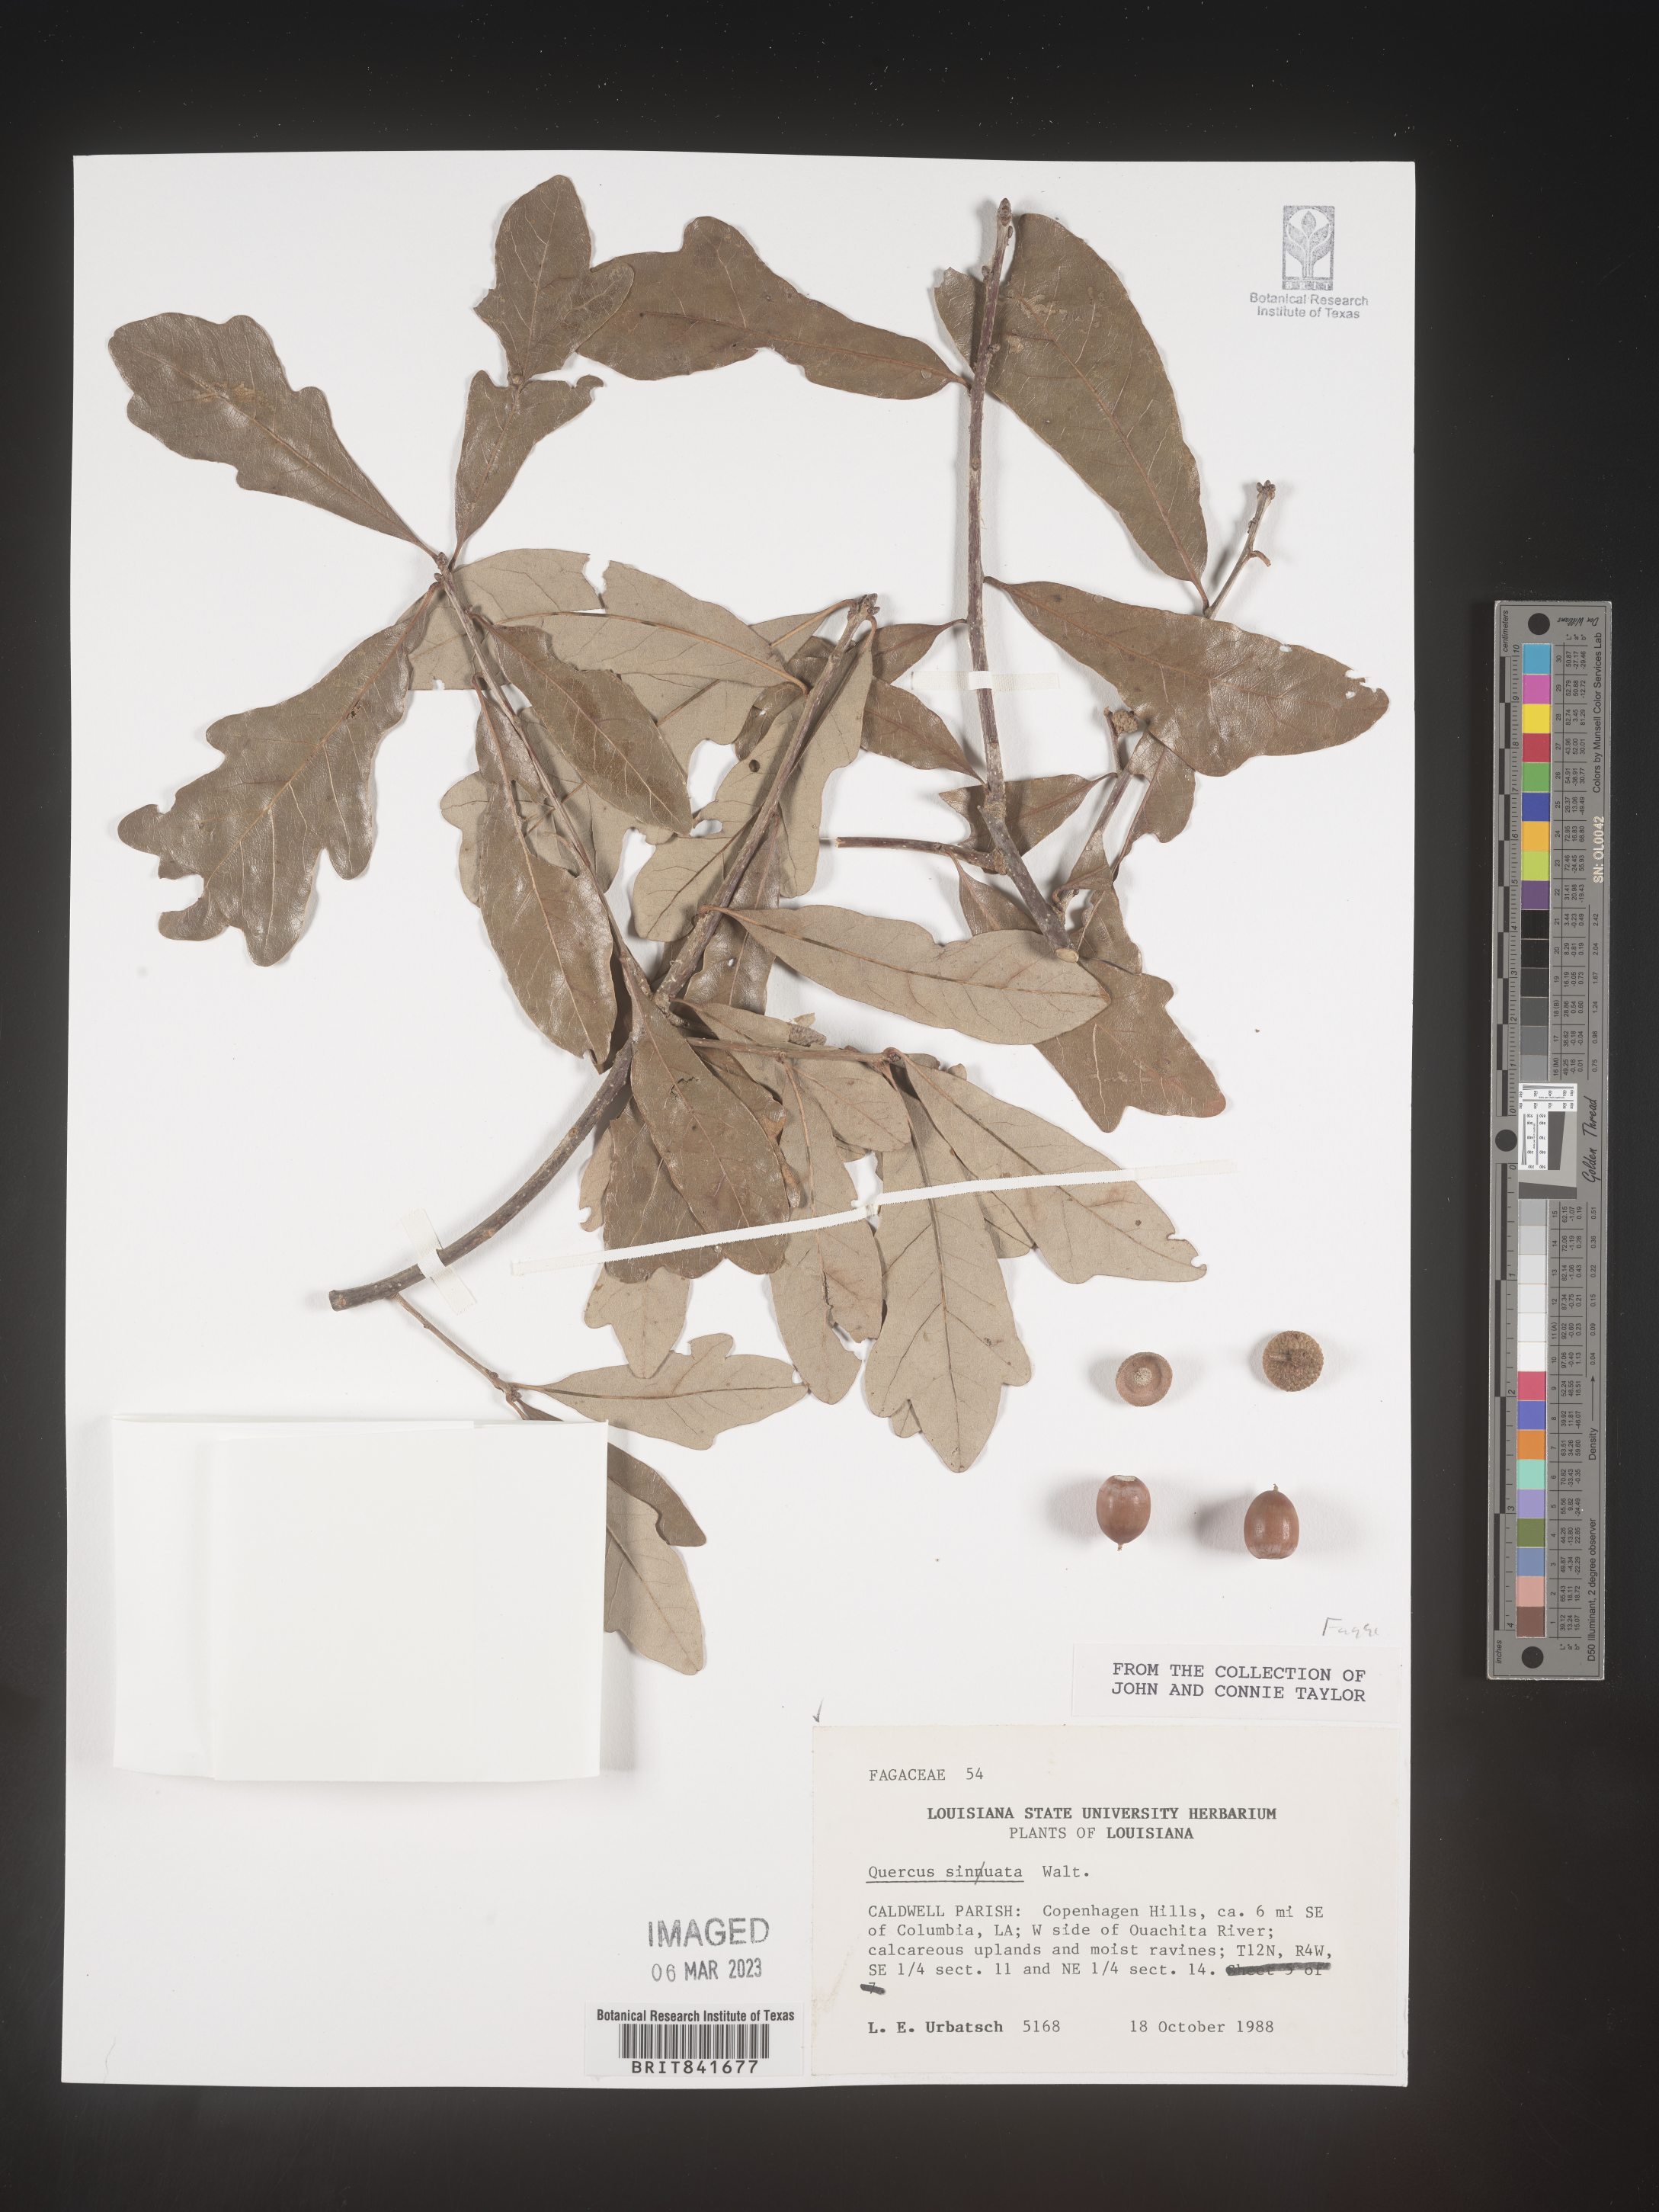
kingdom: Plantae
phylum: Tracheophyta
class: Magnoliopsida
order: Fagales
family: Fagaceae
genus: Quercus
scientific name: Quercus
